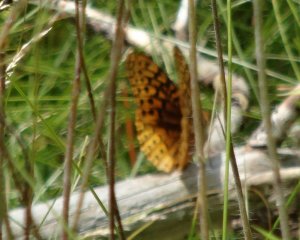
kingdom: Animalia
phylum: Arthropoda
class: Insecta
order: Lepidoptera
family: Nymphalidae
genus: Speyeria
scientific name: Speyeria cybele
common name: Great Spangled Fritillary
